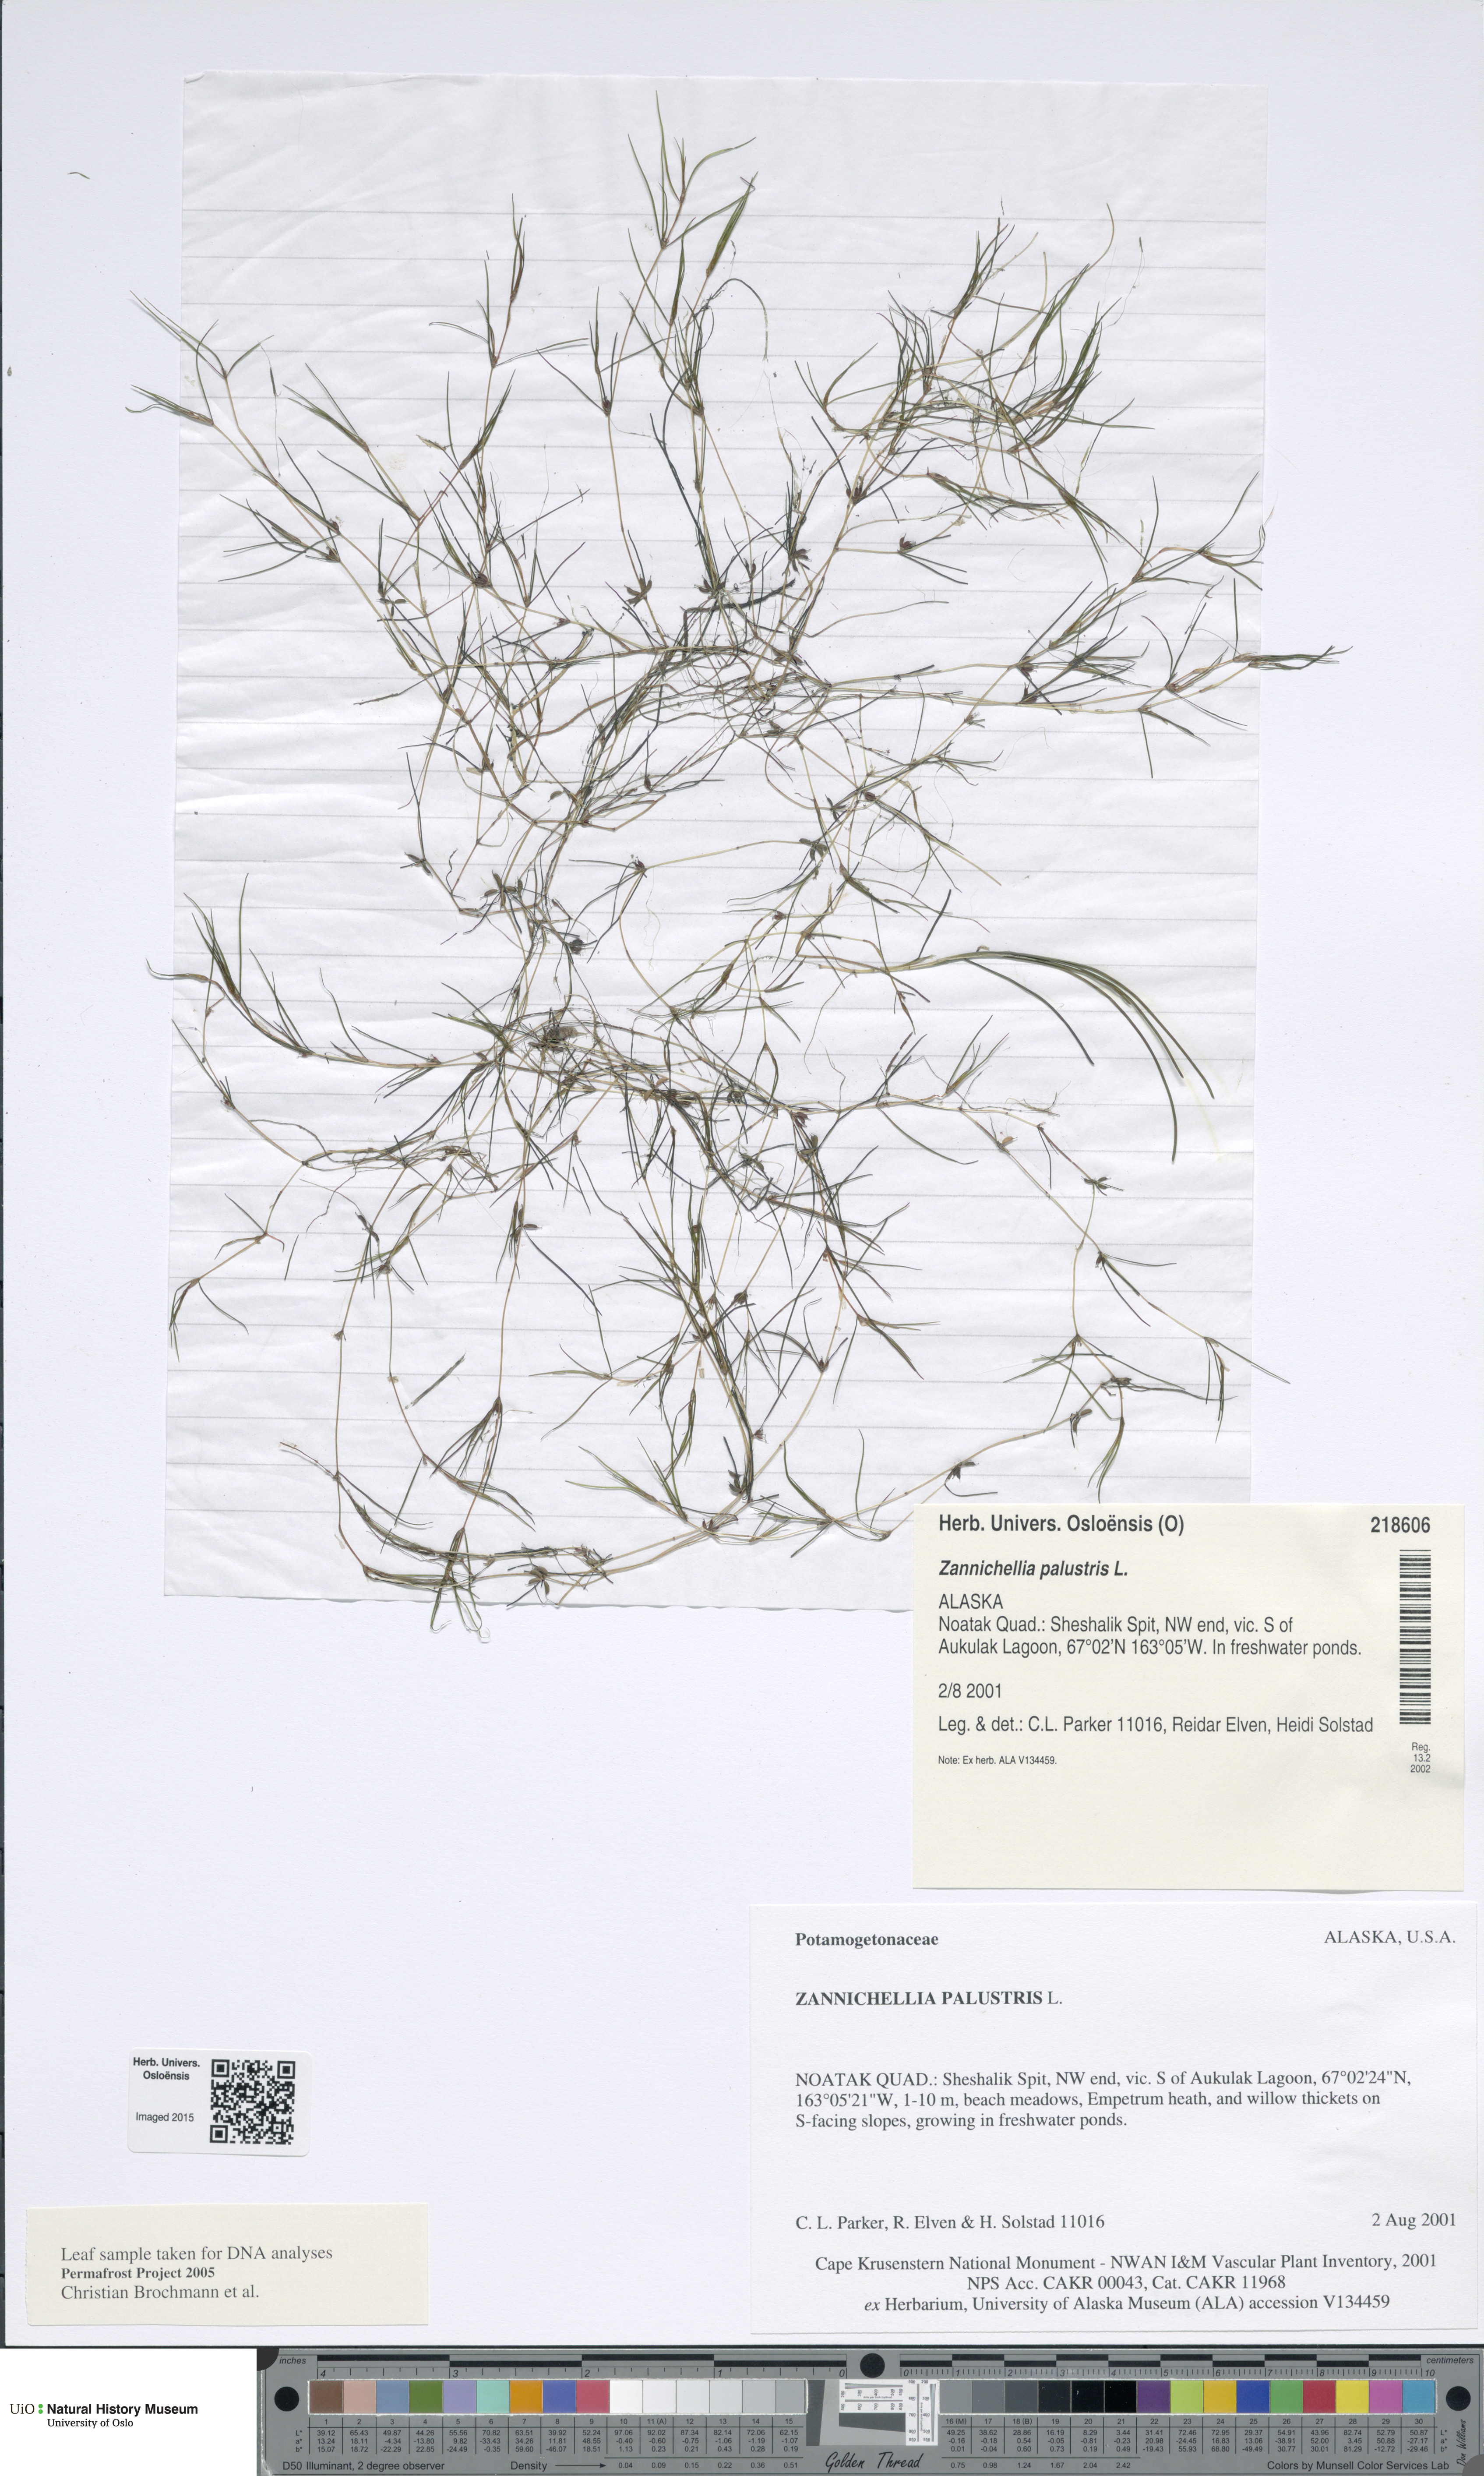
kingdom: Plantae
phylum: Tracheophyta
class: Liliopsida
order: Alismatales
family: Potamogetonaceae
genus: Zannichellia
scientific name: Zannichellia palustris
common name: Horned pondweed
